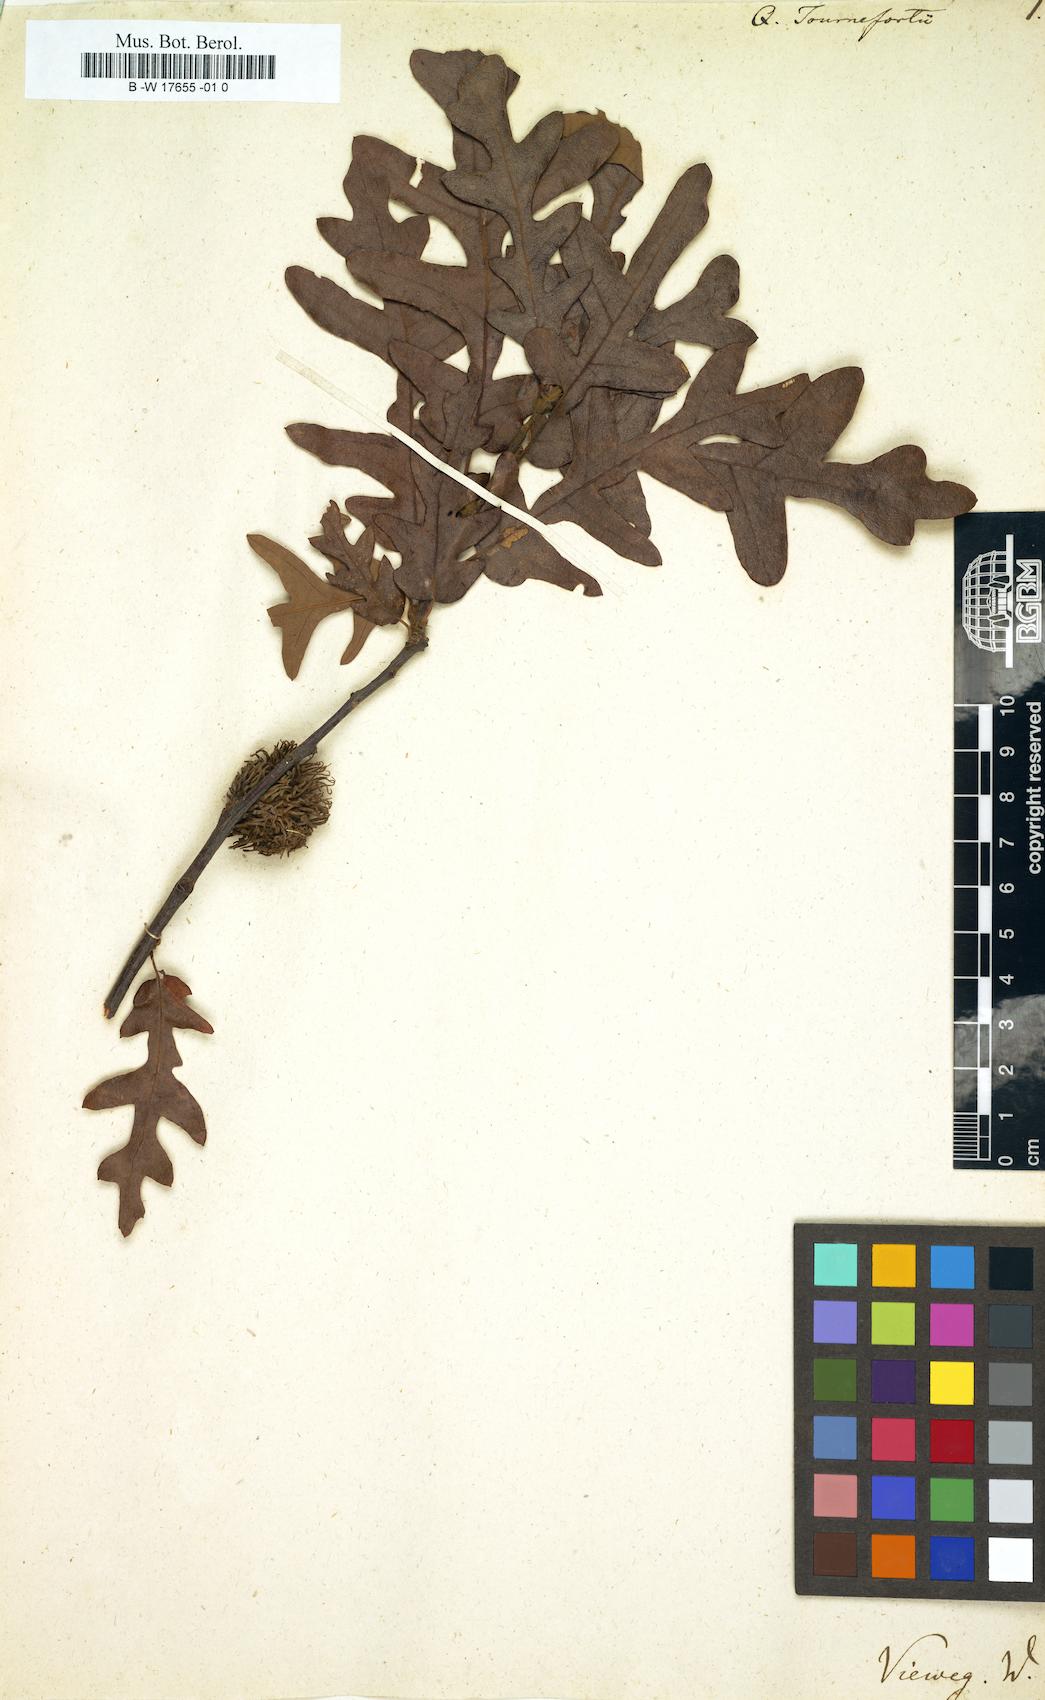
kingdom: Plantae
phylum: Tracheophyta
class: Magnoliopsida
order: Fagales
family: Fagaceae
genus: Quercus
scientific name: Quercus cerris
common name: Turkey oak
